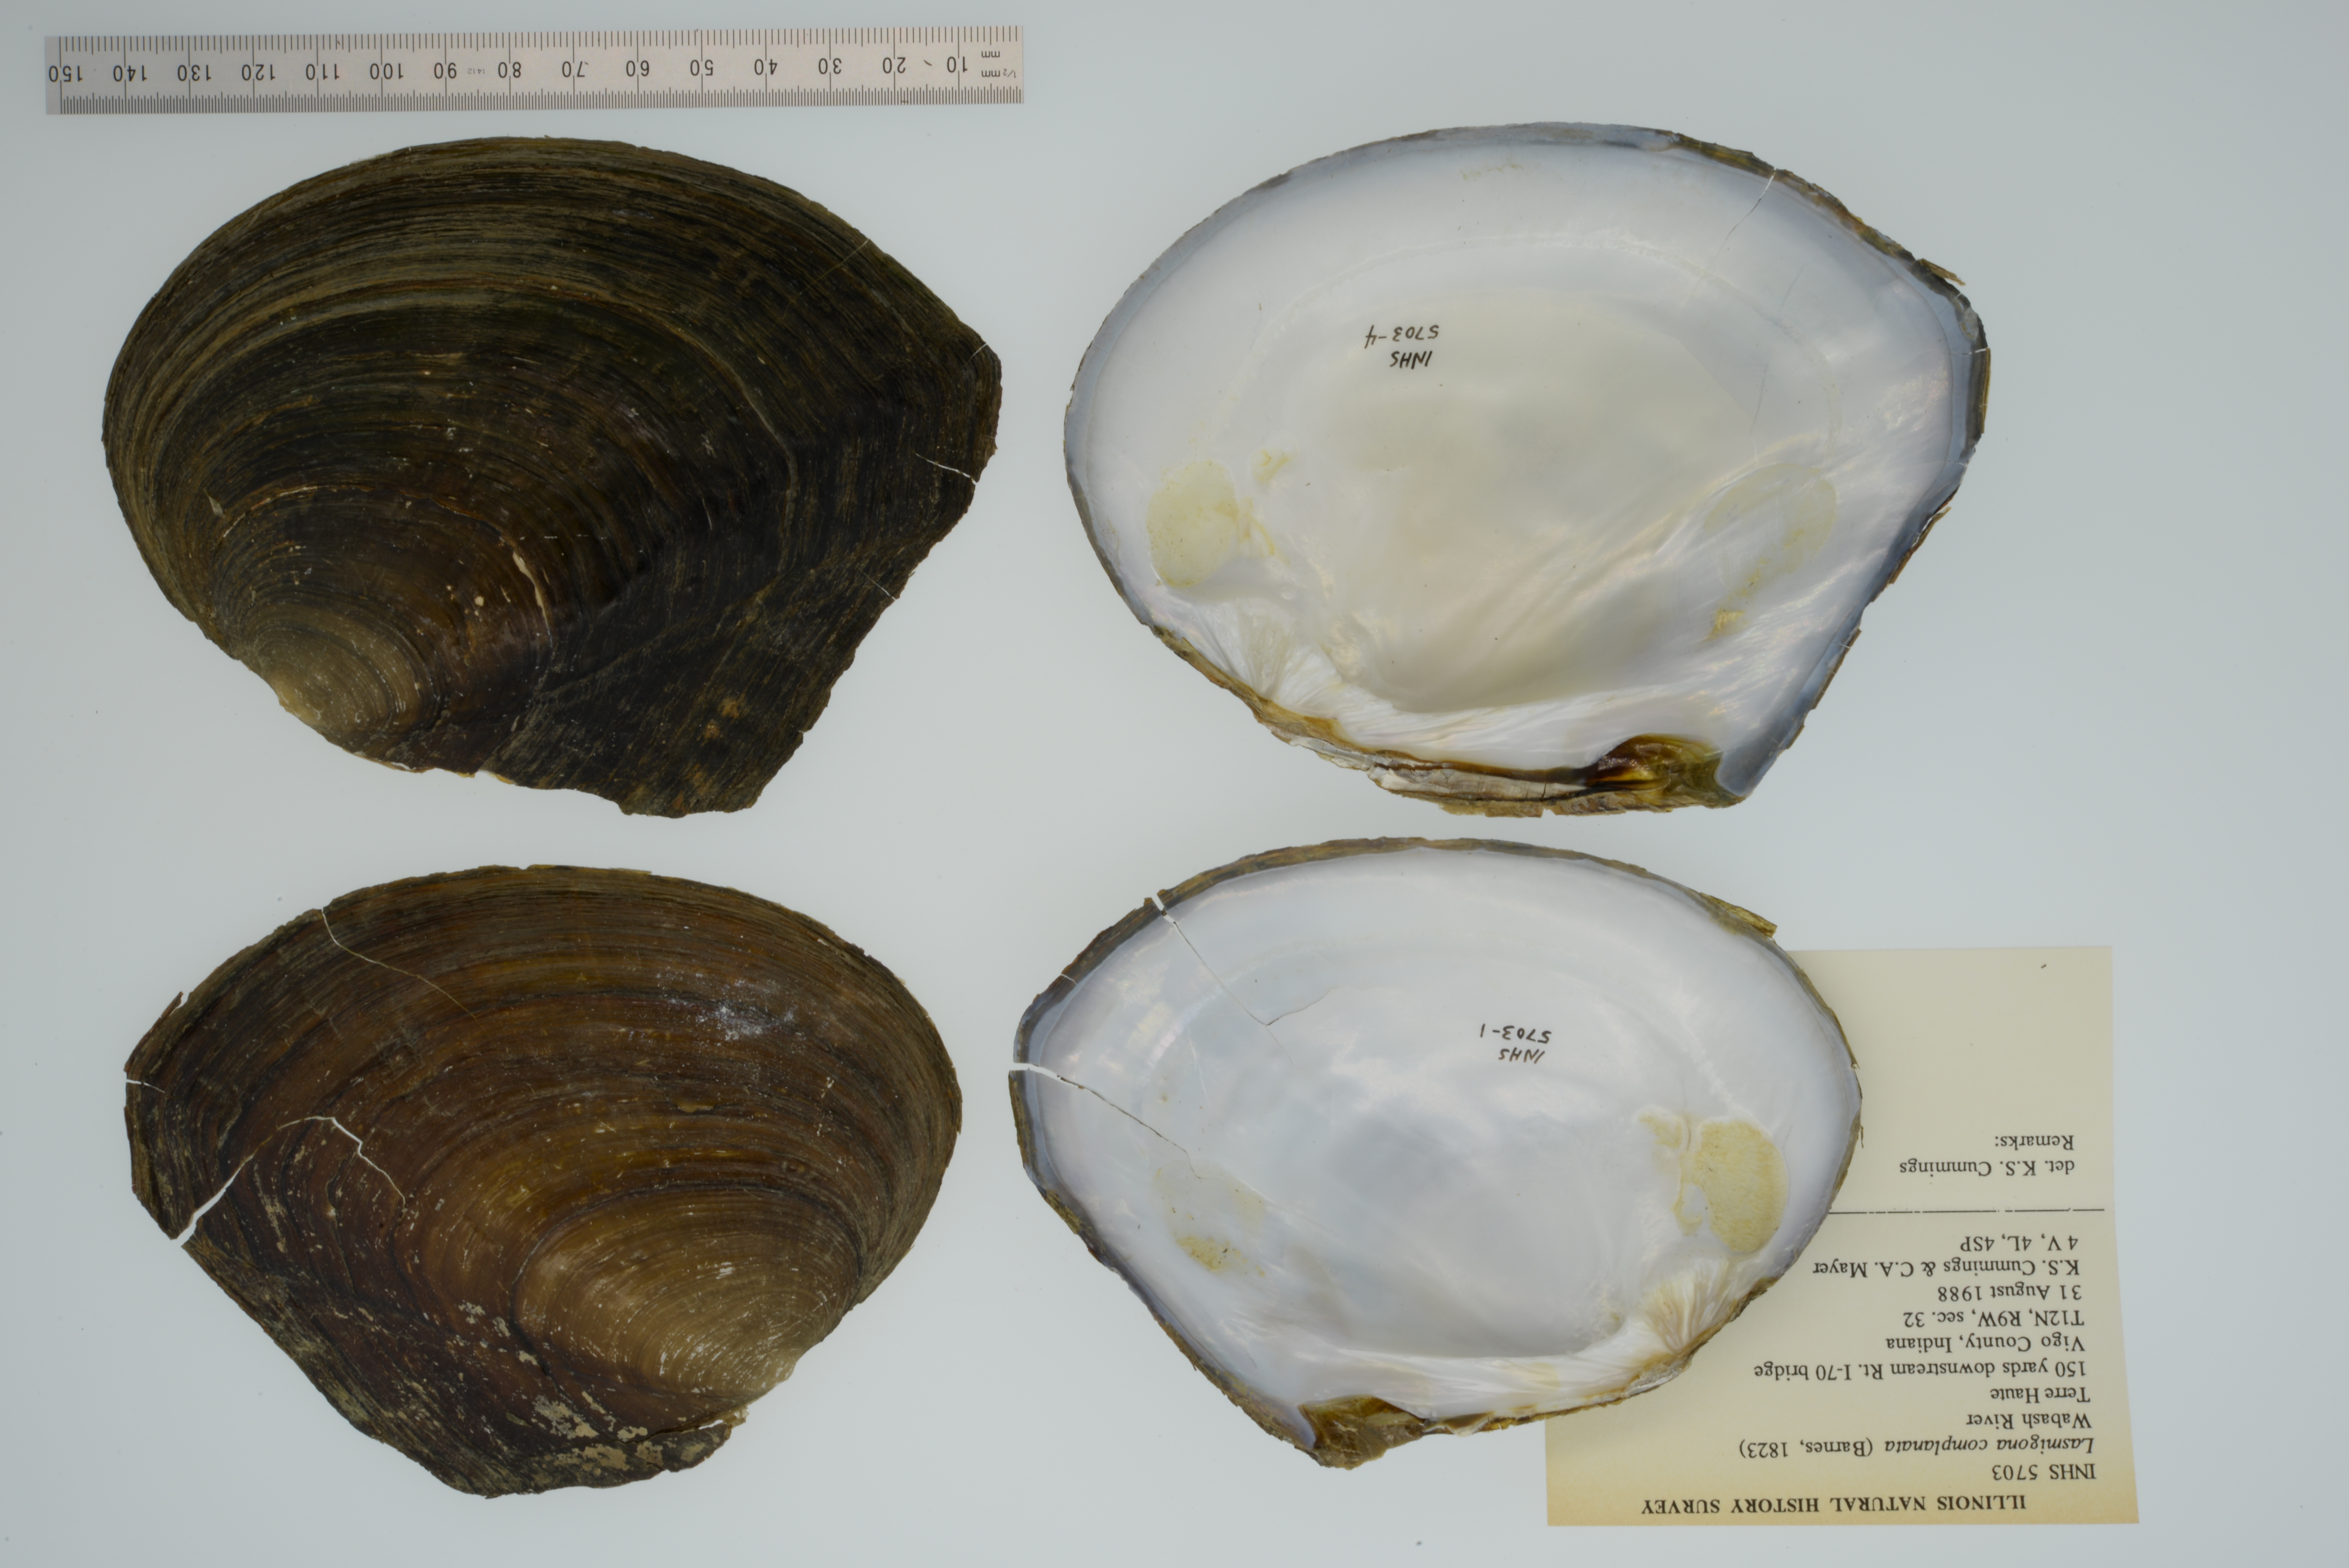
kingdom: Animalia
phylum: Mollusca
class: Bivalvia
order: Unionida
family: Unionidae
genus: Lasmigona
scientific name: Lasmigona complanata
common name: White heelsplitter
